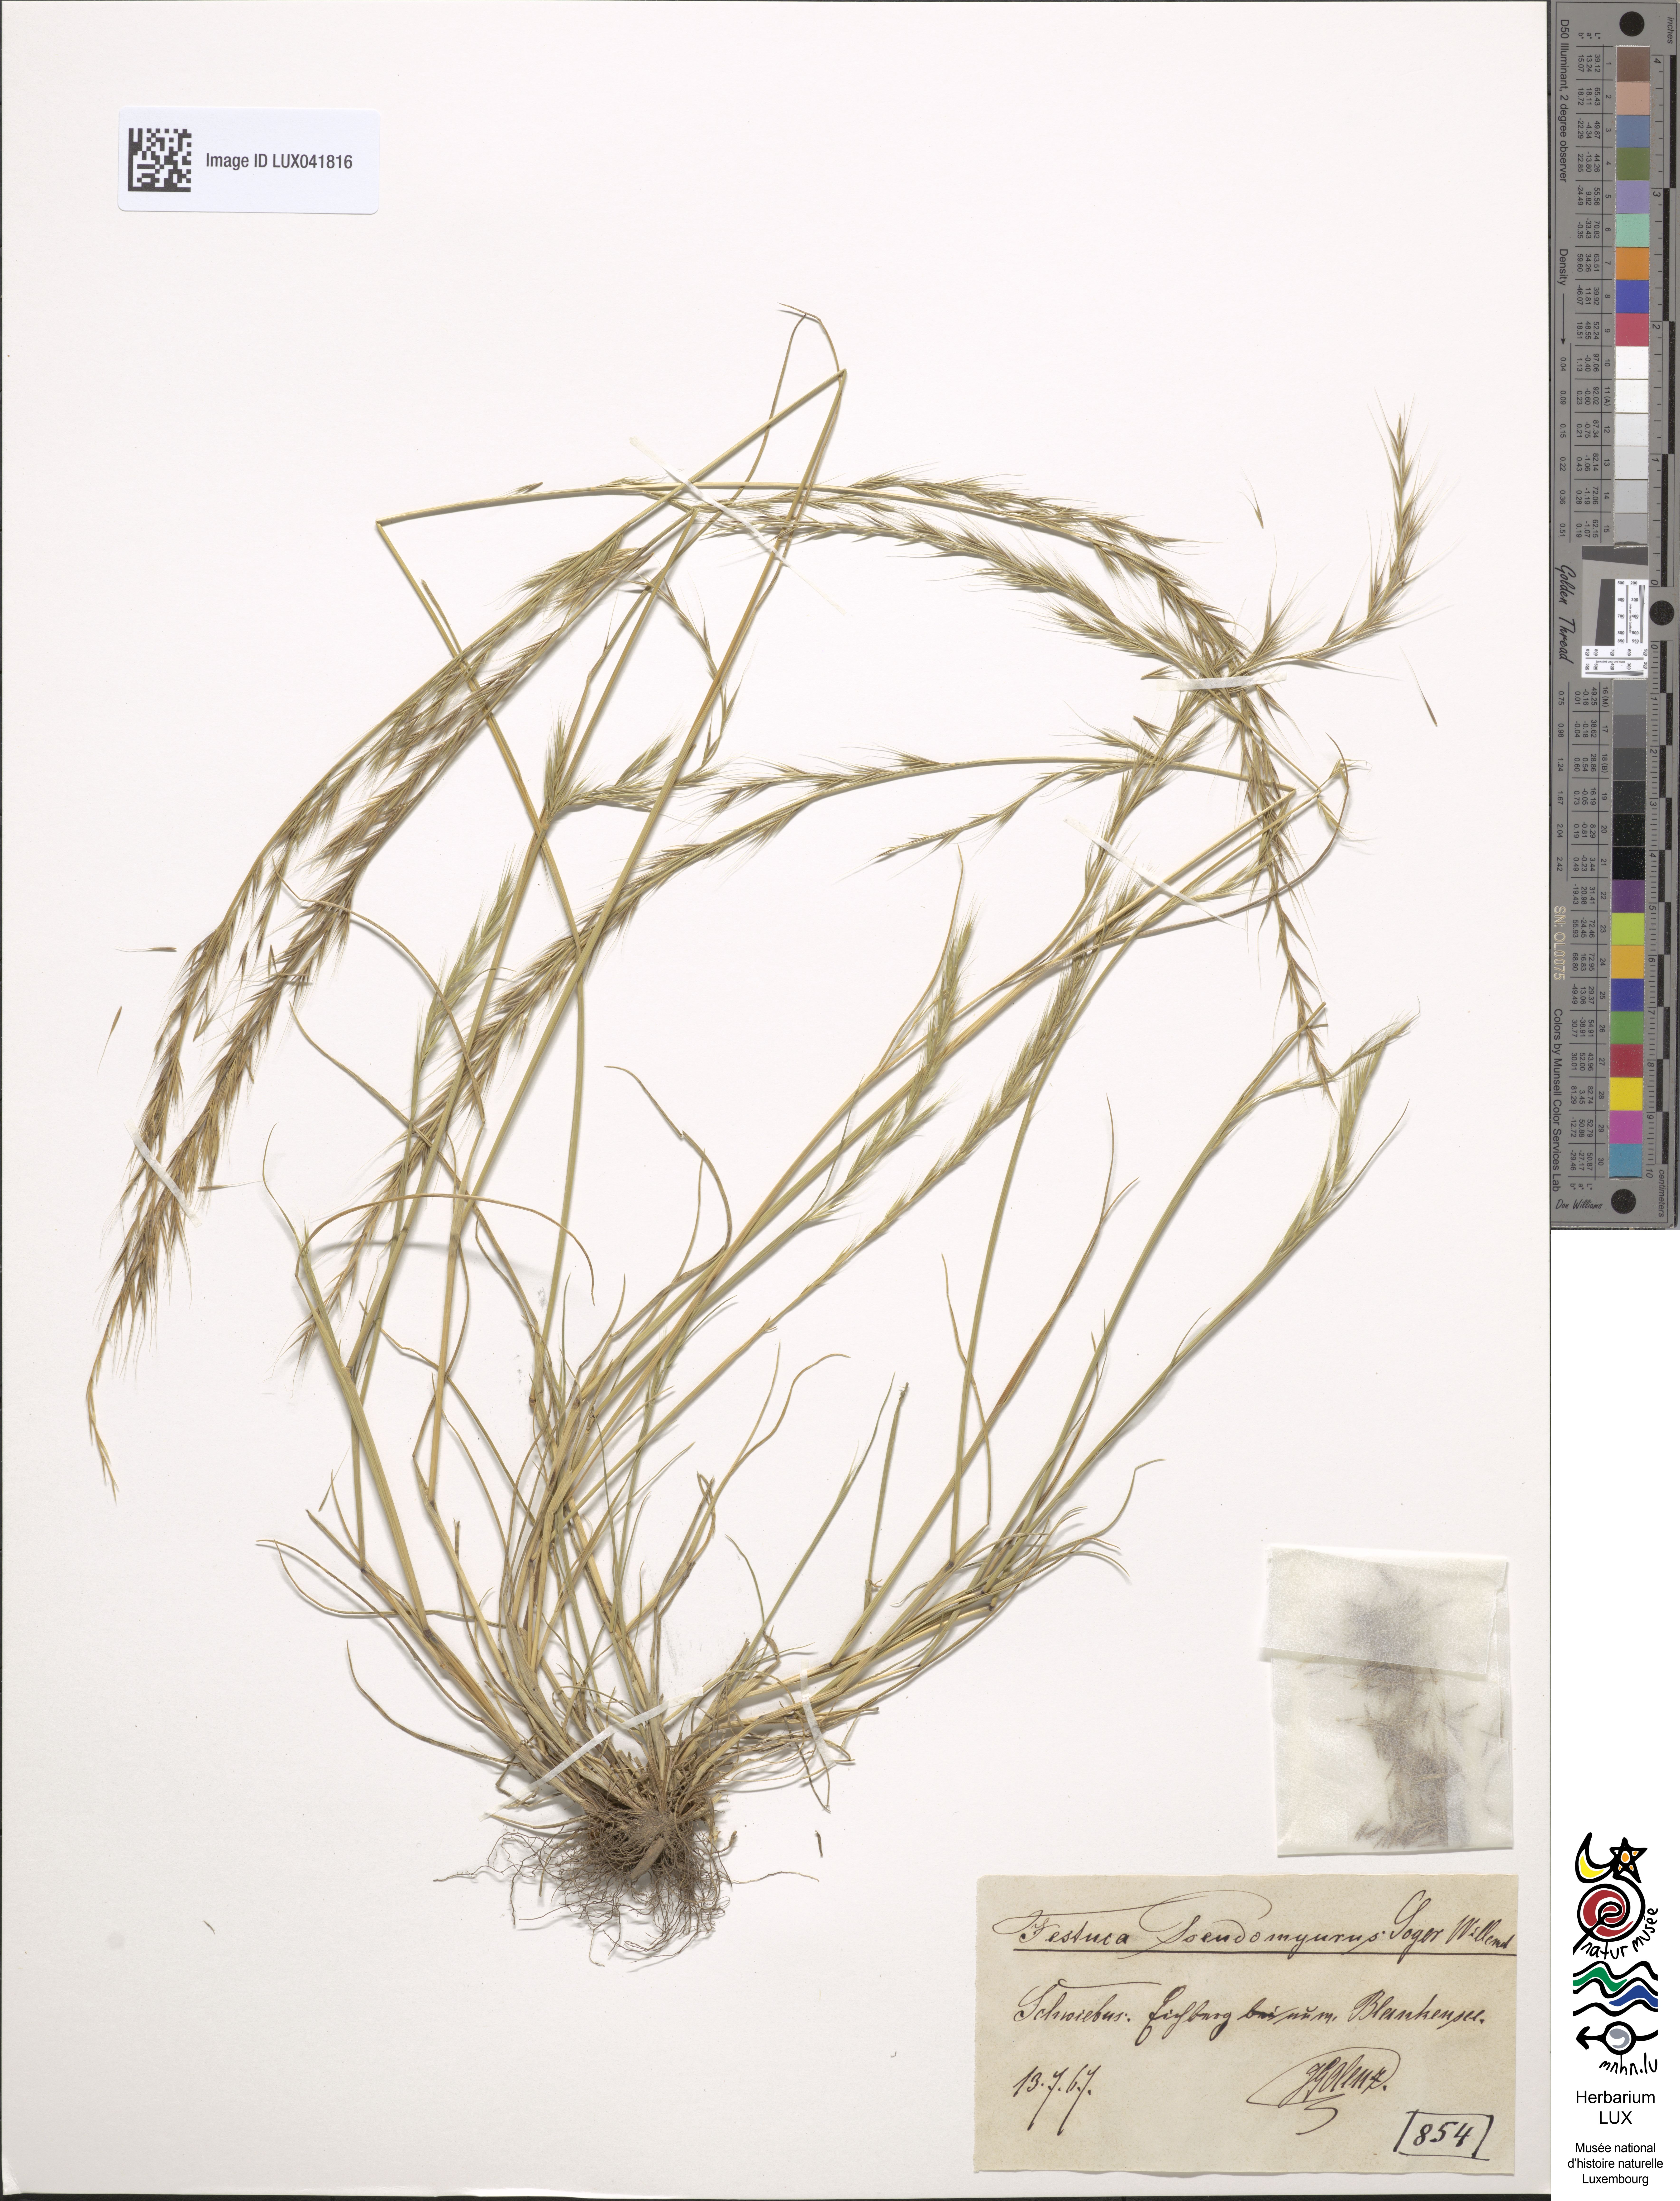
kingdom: Plantae
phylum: Tracheophyta
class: Liliopsida
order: Poales
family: Poaceae
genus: Festuca
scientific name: Festuca myuros
